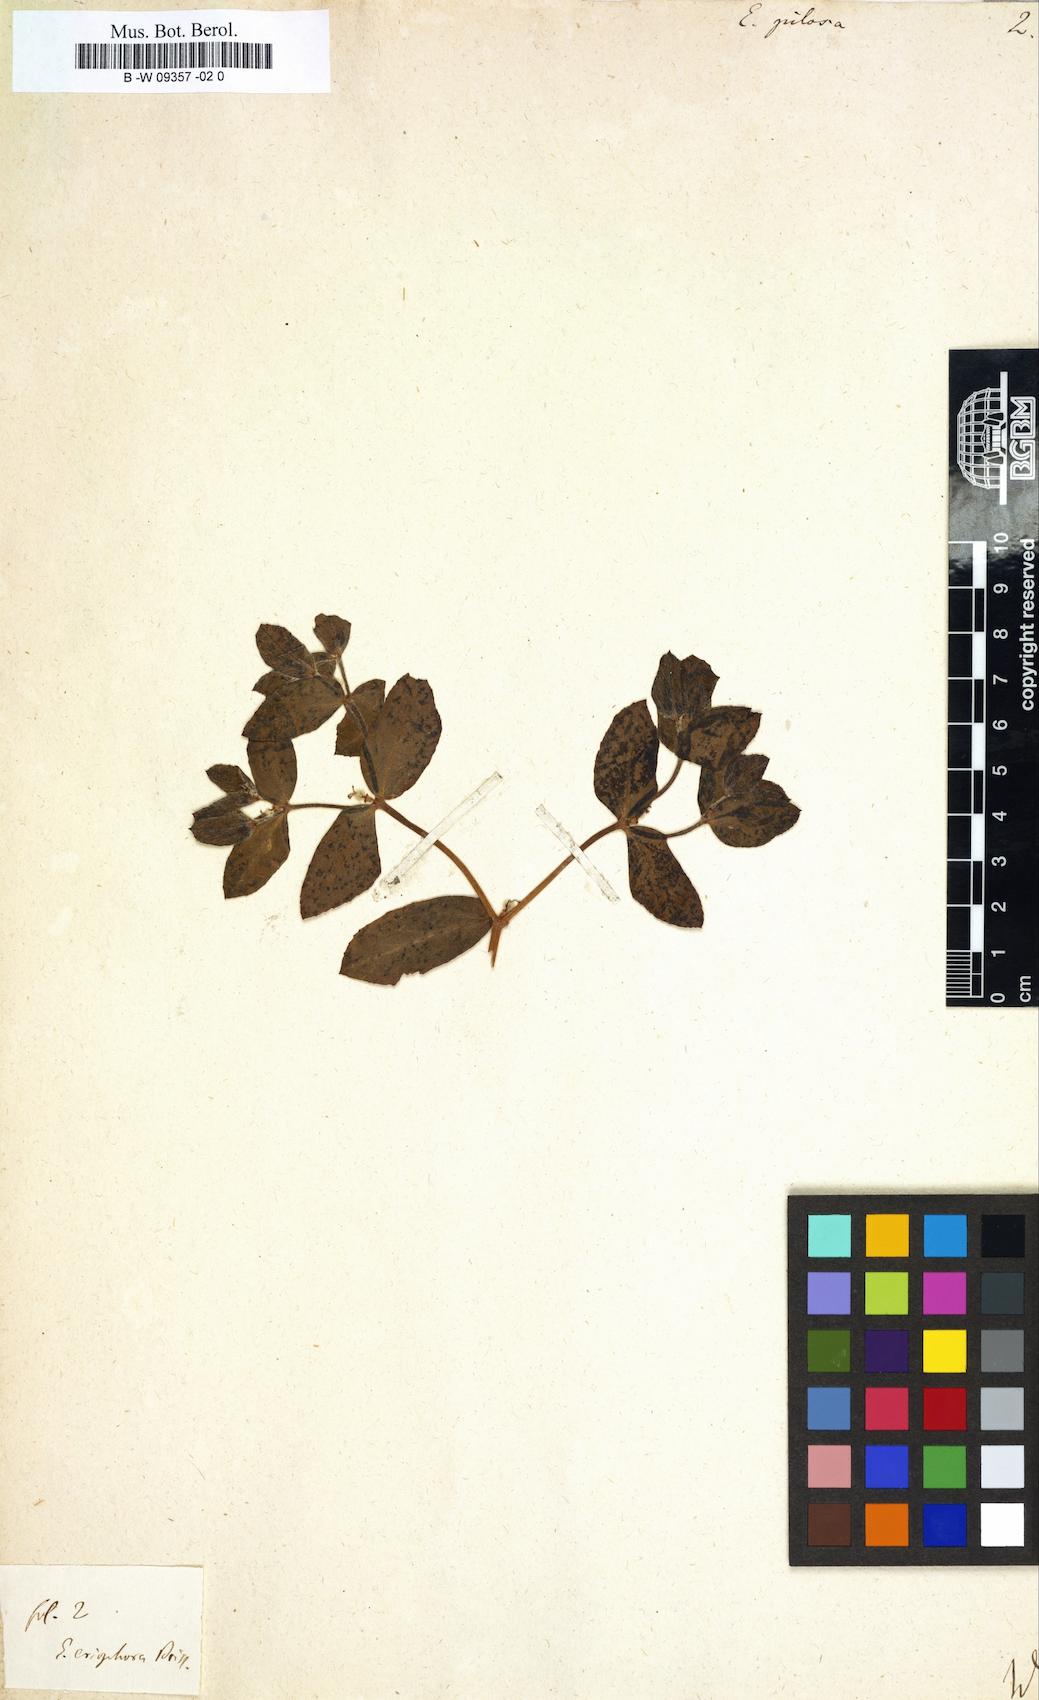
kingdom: Plantae
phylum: Tracheophyta
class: Magnoliopsida
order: Malpighiales
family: Euphorbiaceae
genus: Euphorbia
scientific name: Euphorbia pilosa
